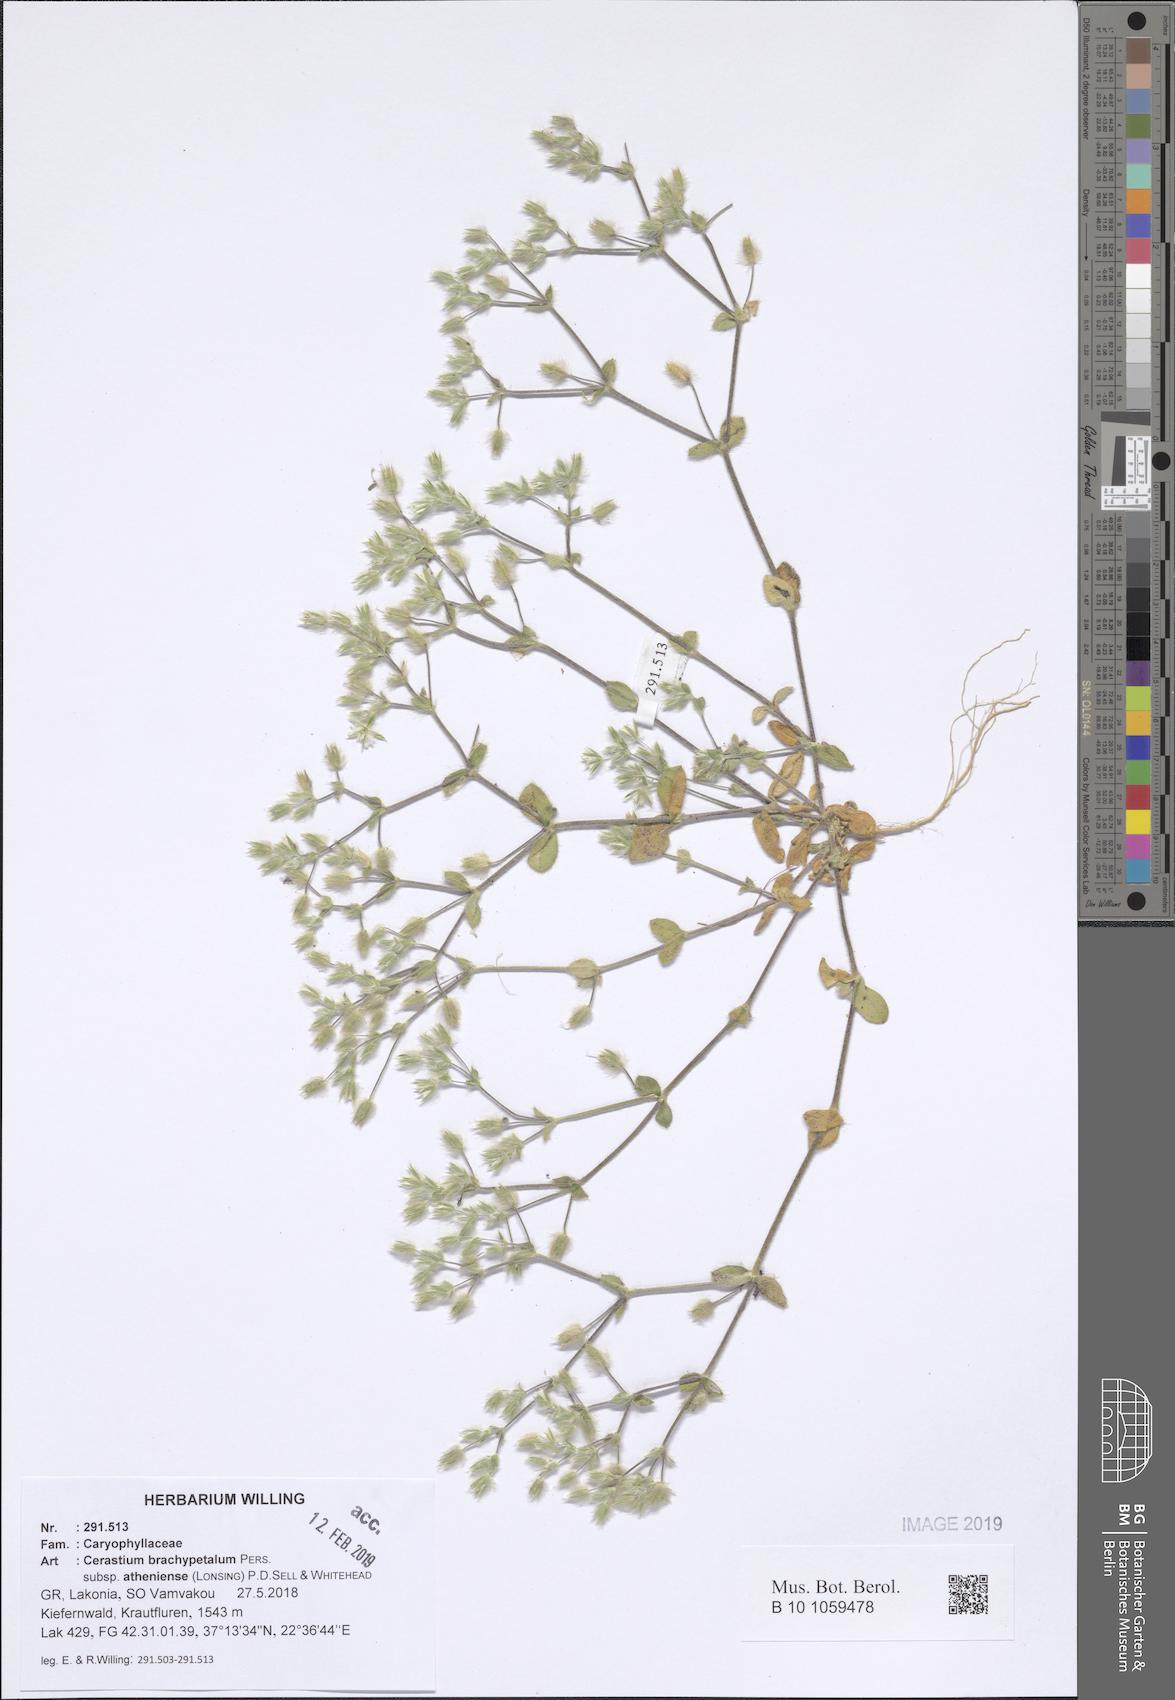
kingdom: Plantae
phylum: Tracheophyta
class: Magnoliopsida
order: Caryophyllales
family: Caryophyllaceae
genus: Cerastium
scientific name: Cerastium brachypetalum
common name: Grey mouse-ear
